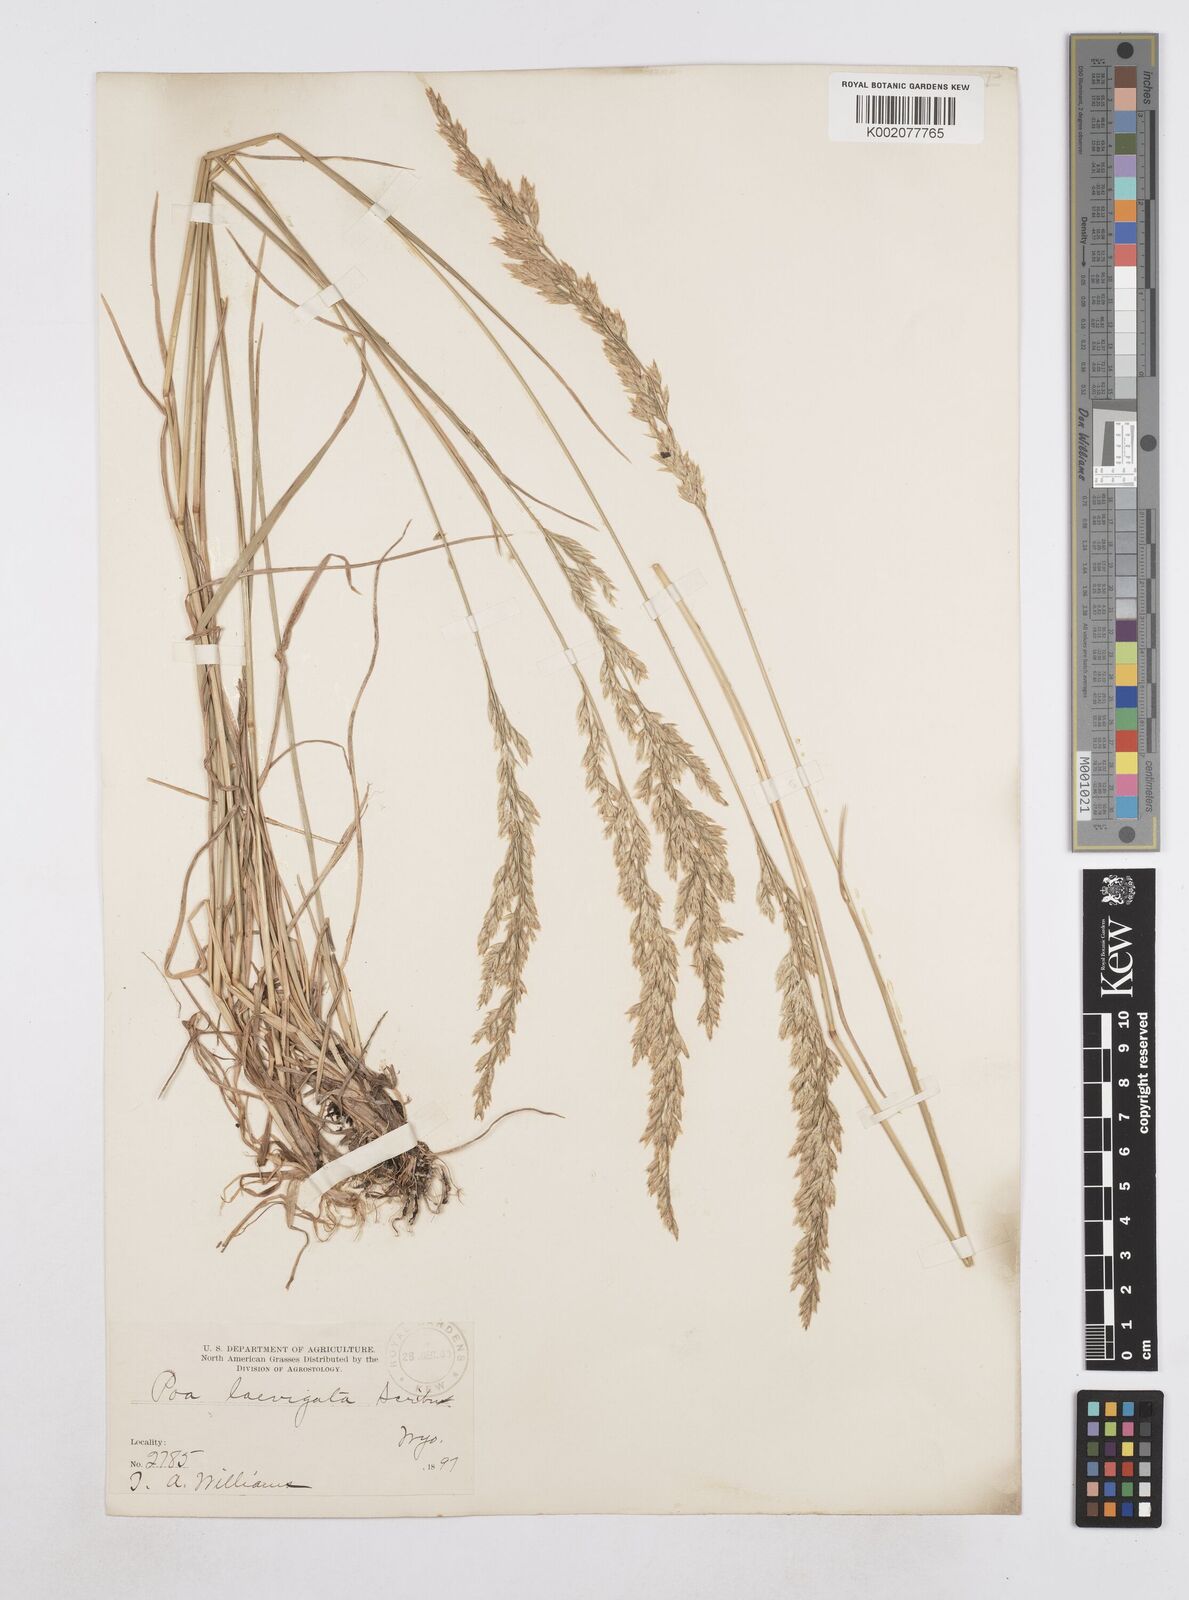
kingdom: Plantae
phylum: Tracheophyta
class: Liliopsida
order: Poales
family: Poaceae
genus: Poa
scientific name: Poa secunda
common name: Sandberg bluegrass
